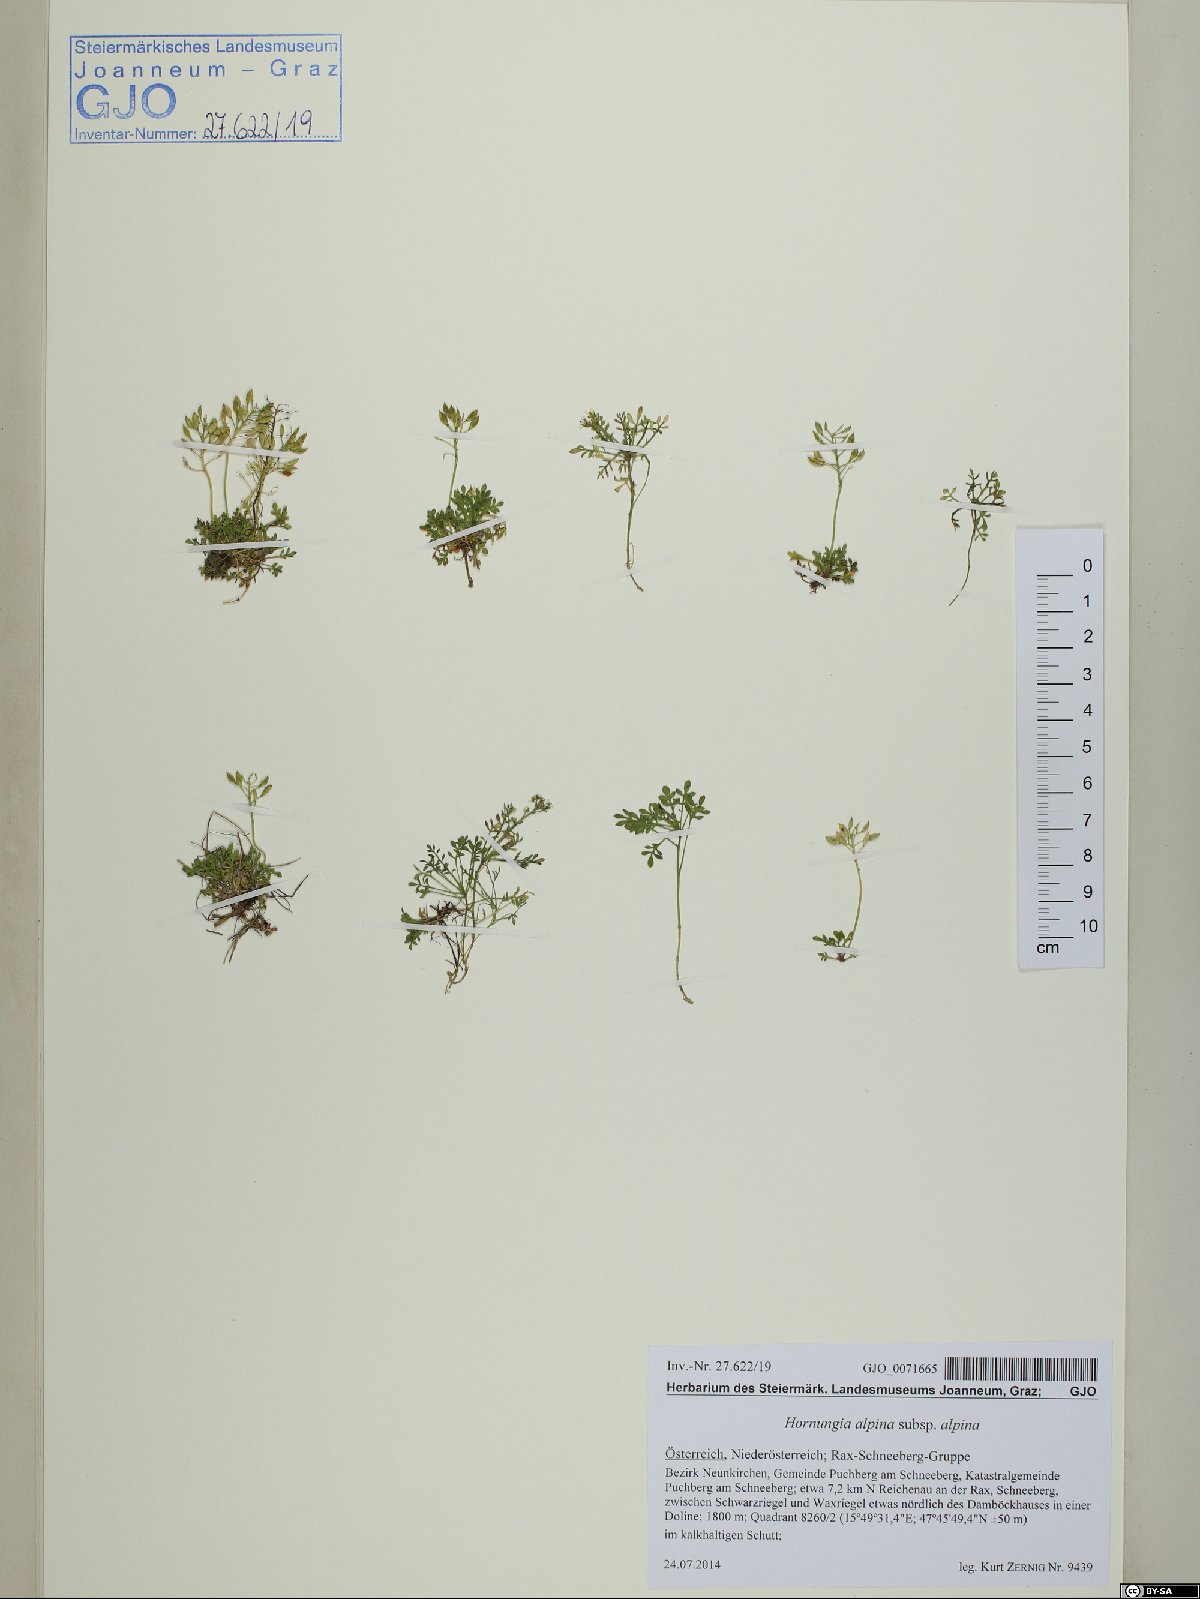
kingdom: Plantae
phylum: Tracheophyta
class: Magnoliopsida
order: Brassicales
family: Brassicaceae
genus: Hornungia
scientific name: Hornungia alpina
